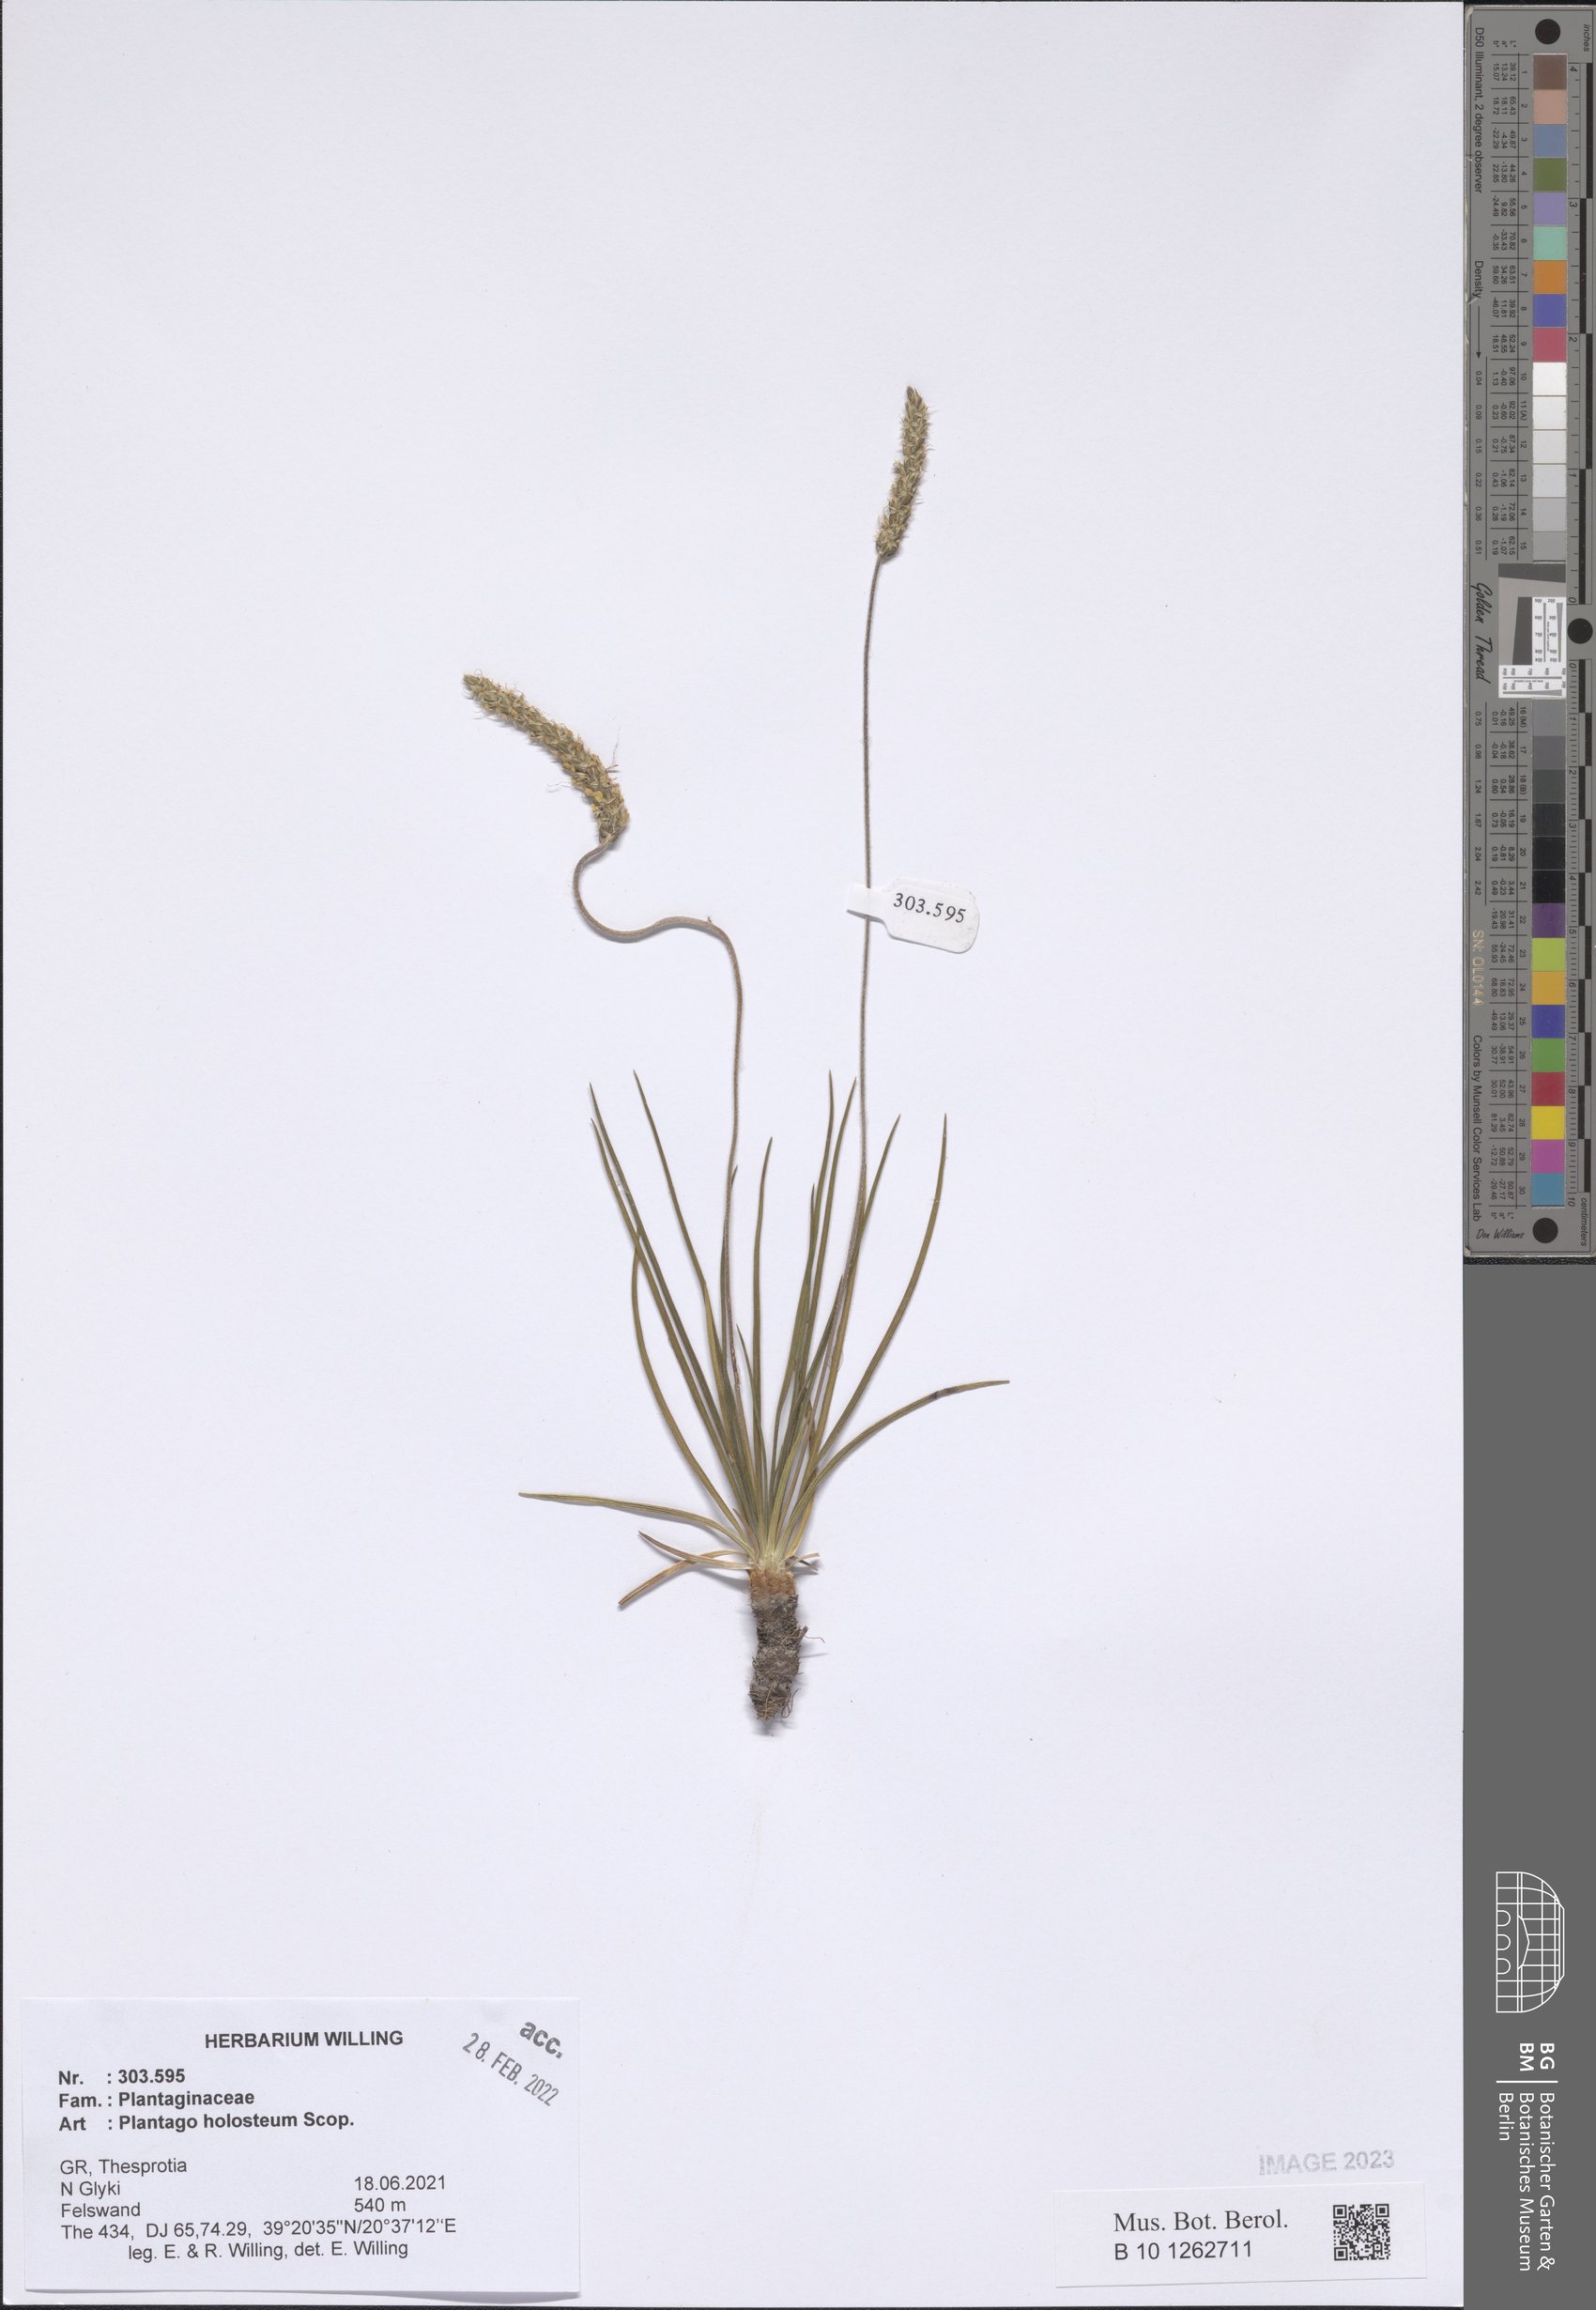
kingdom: Plantae
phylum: Tracheophyta
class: Magnoliopsida
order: Lamiales
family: Plantaginaceae
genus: Plantago
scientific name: Plantago subulata
